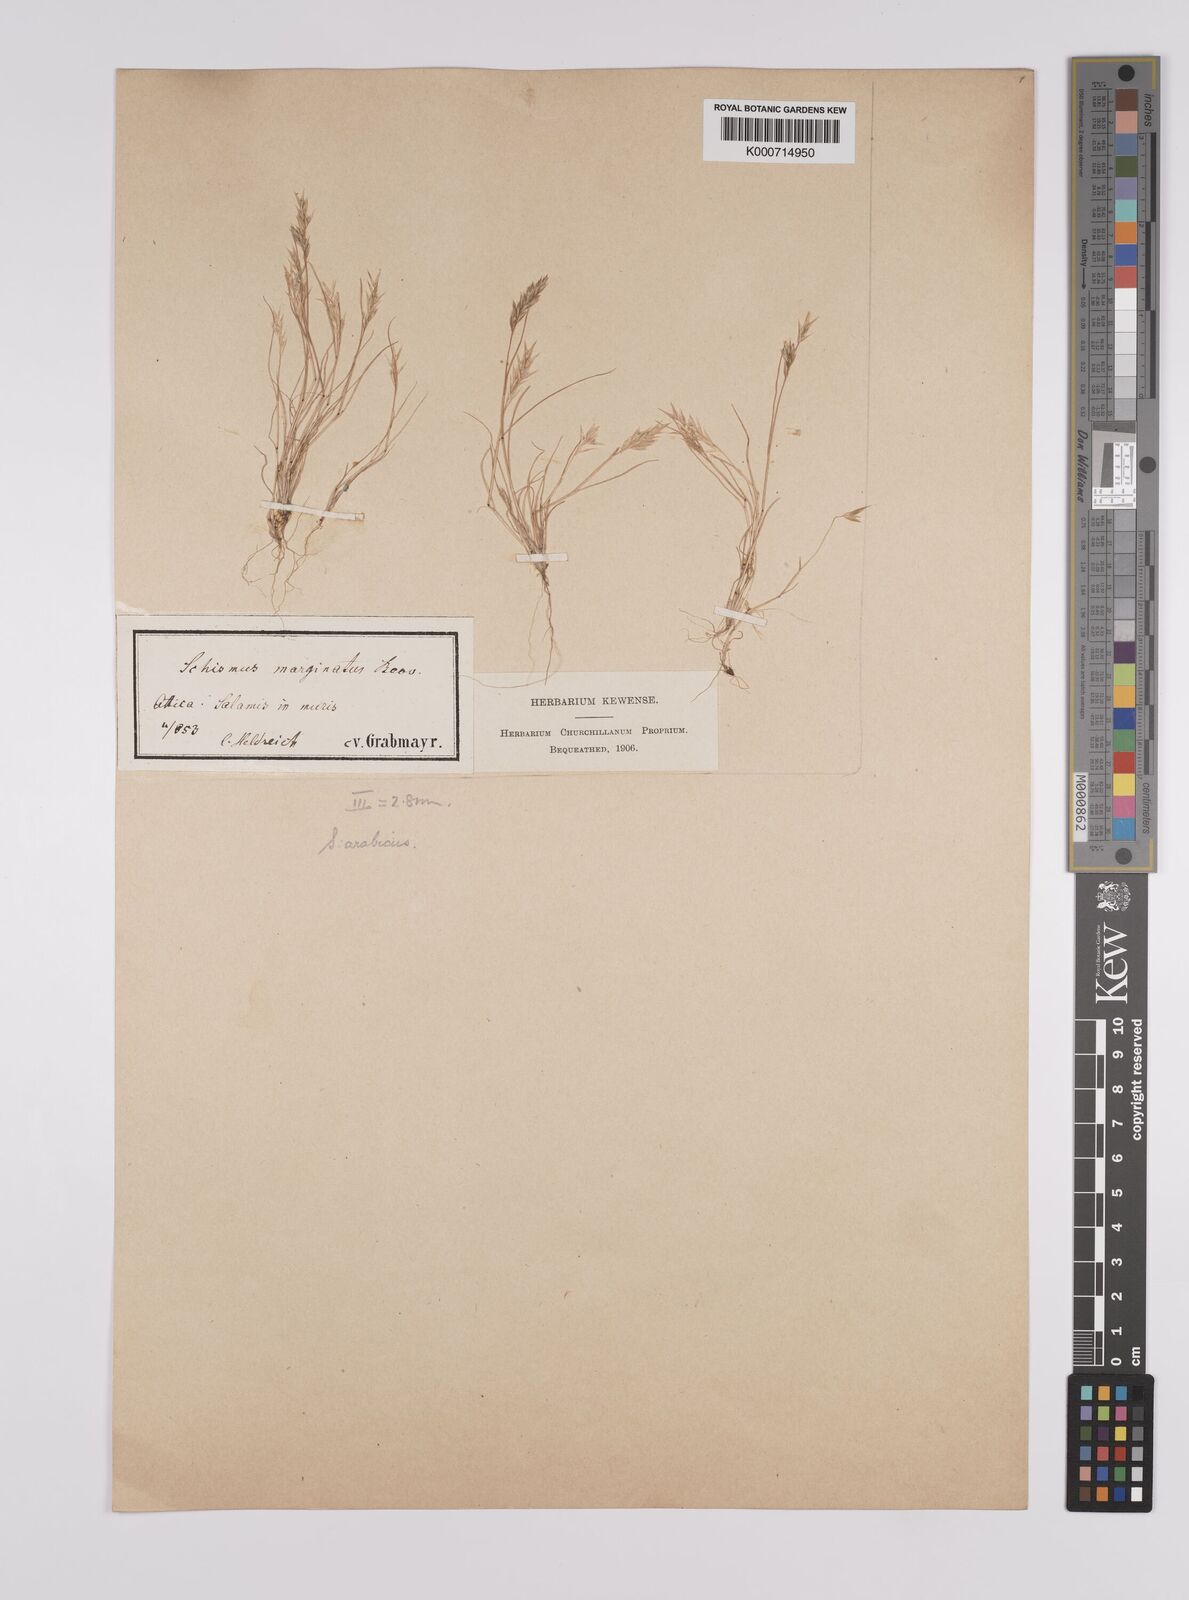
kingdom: Plantae
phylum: Tracheophyta
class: Liliopsida
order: Poales
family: Poaceae
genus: Schismus
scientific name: Schismus arabicus
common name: Arabian schismus
